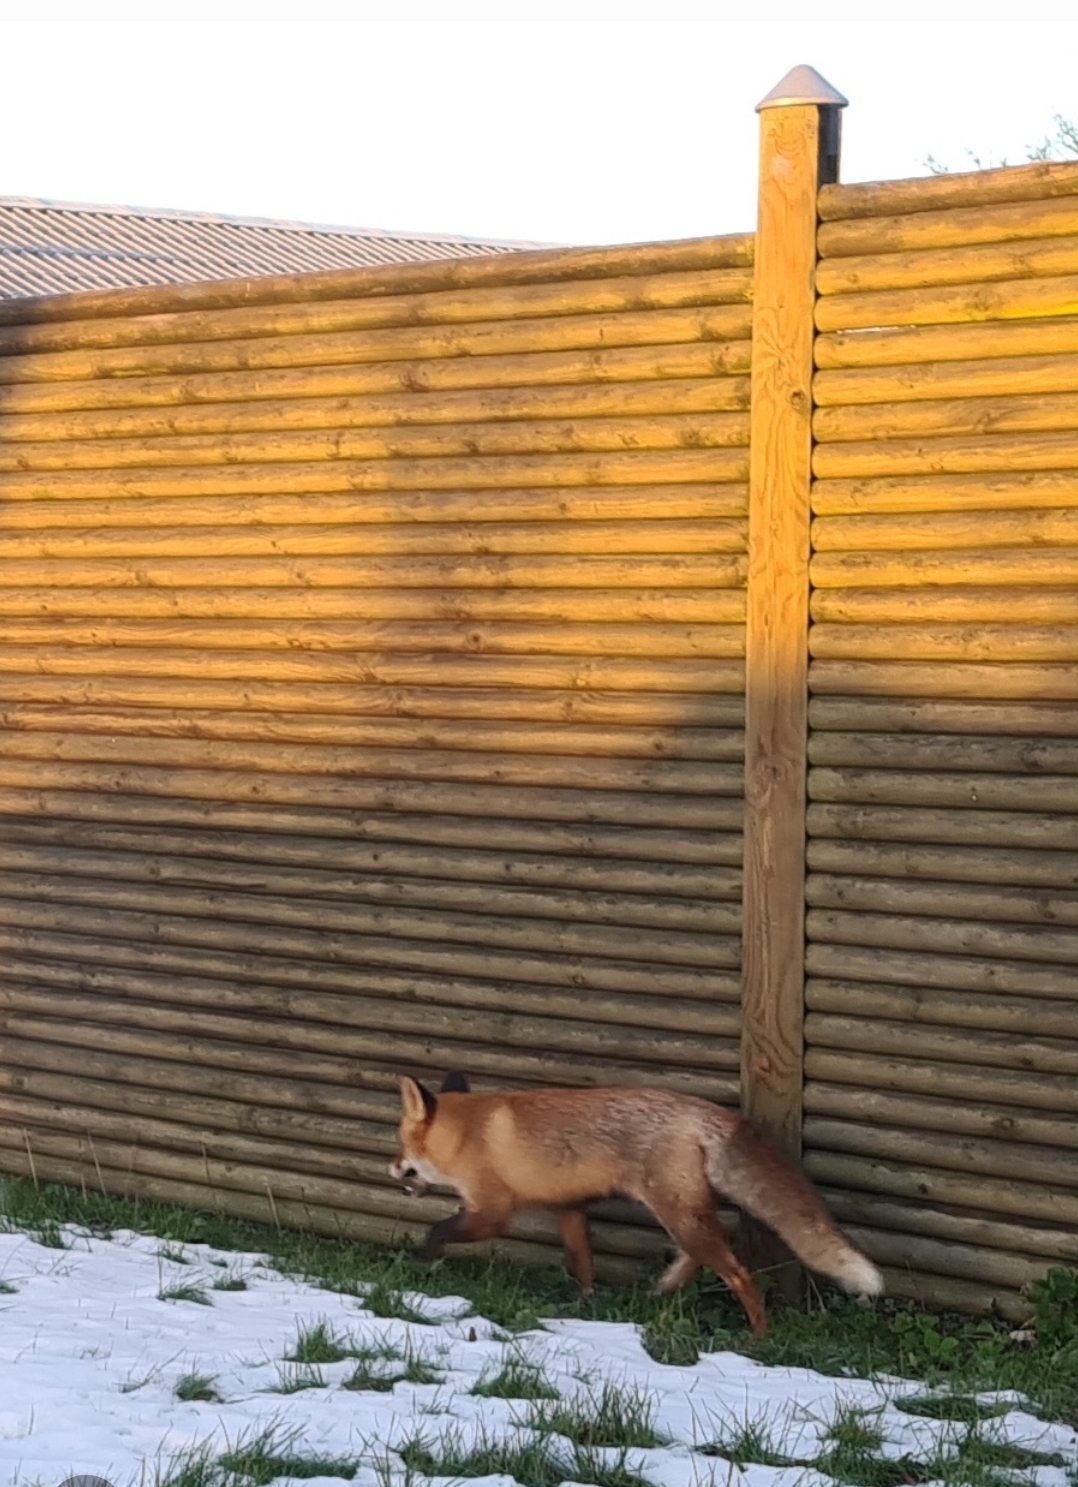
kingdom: Animalia
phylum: Chordata
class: Mammalia
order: Carnivora
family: Canidae
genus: Vulpes
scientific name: Vulpes vulpes
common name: Ræv
